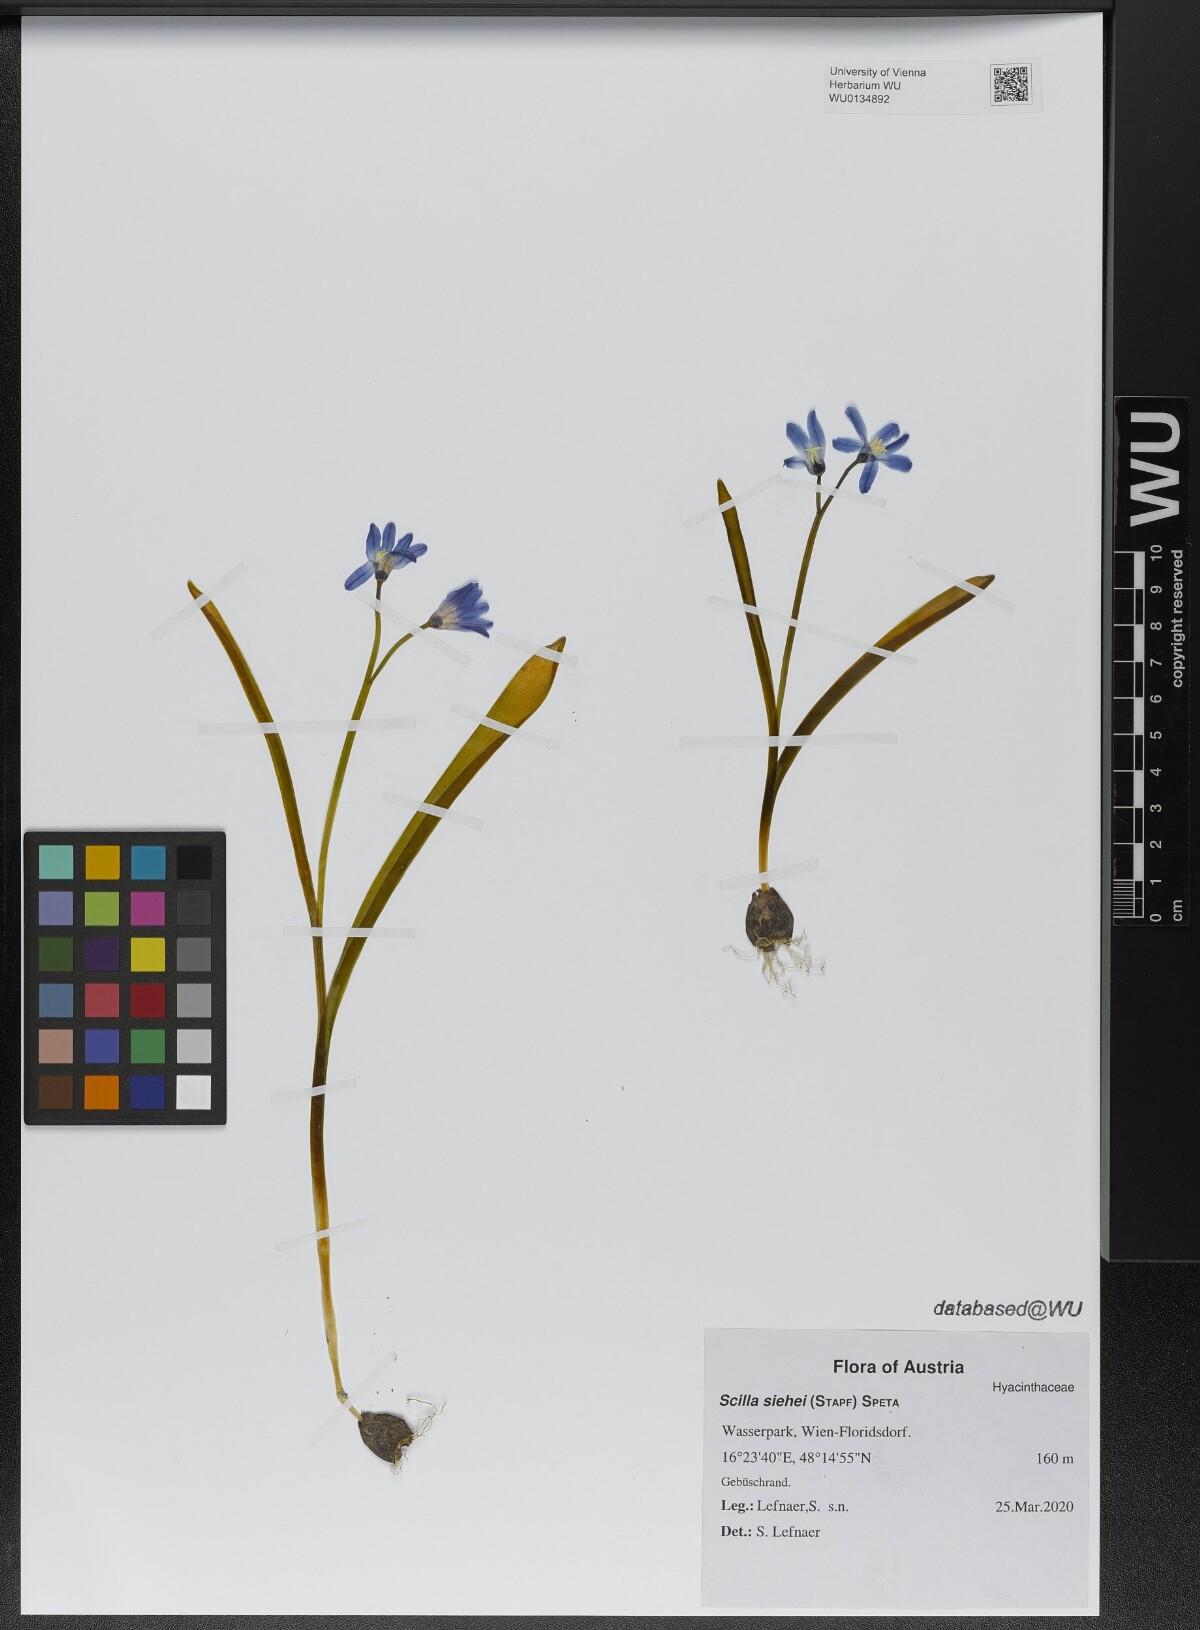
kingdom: Plantae
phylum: Tracheophyta
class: Liliopsida
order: Asparagales
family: Asparagaceae
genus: Scilla
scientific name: Scilla forbesii
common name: Glory-of-the-snow
